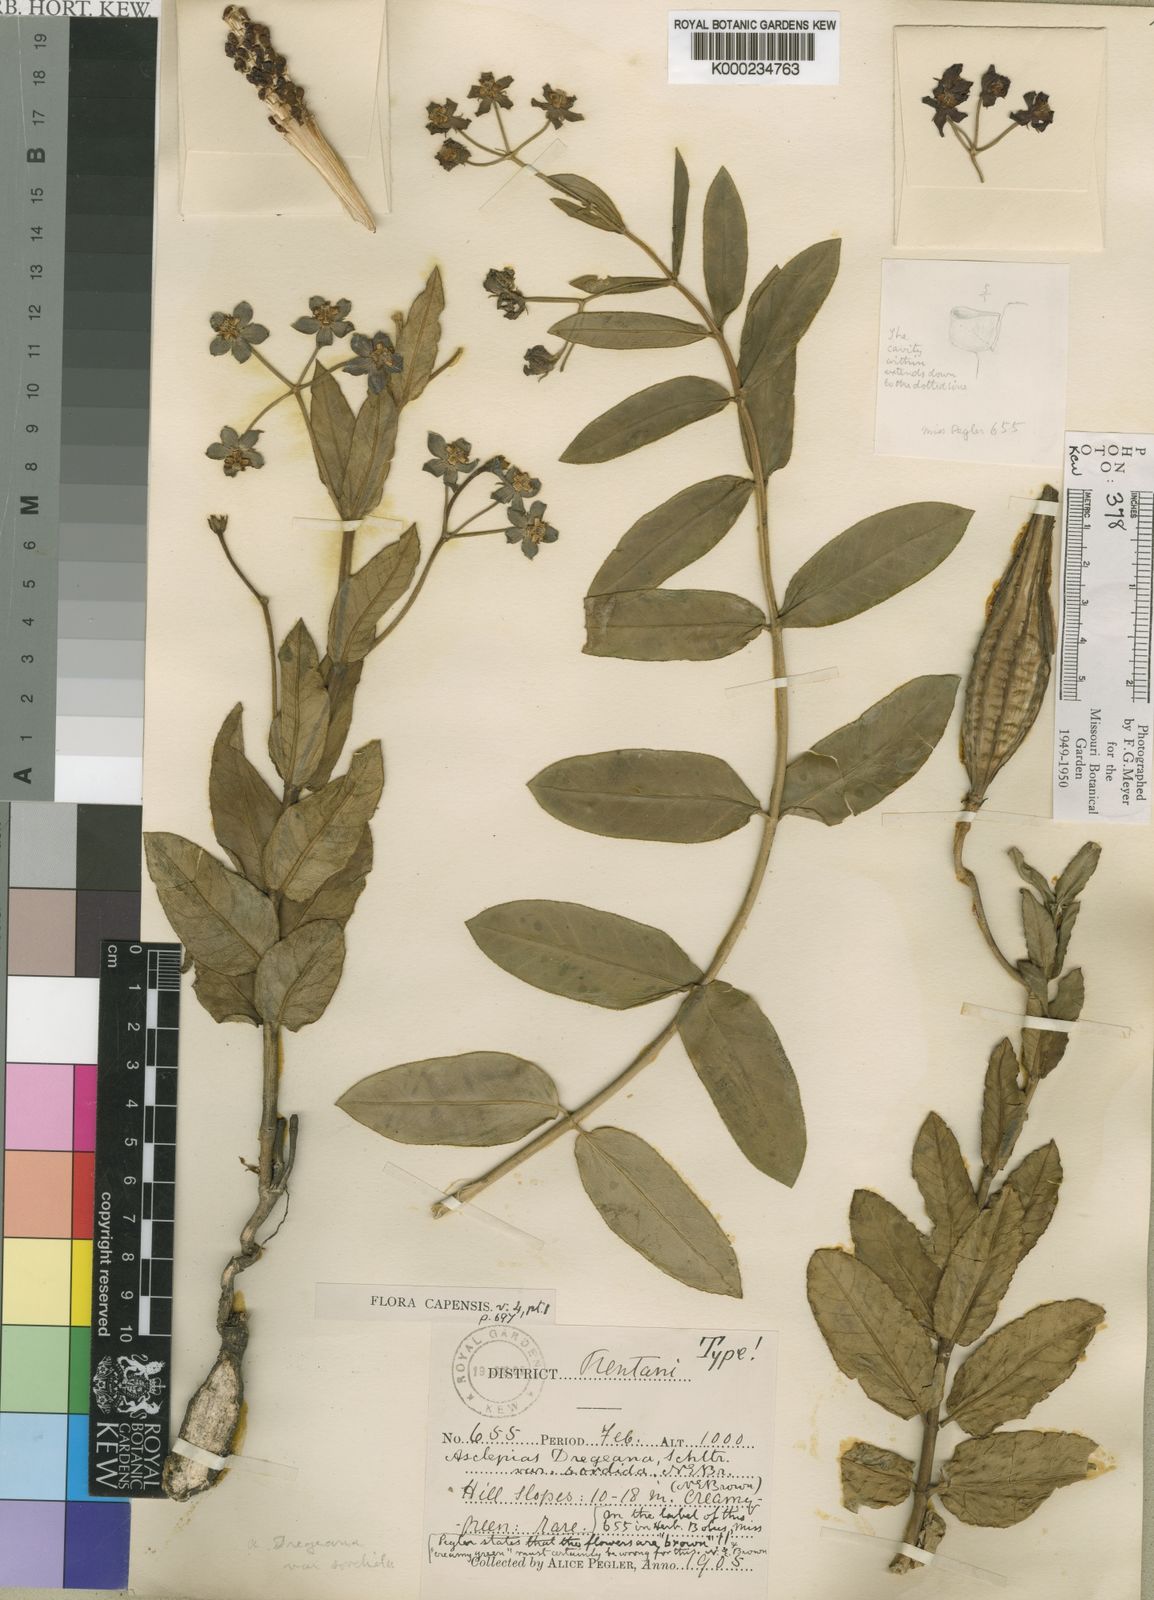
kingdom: Plantae
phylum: Tracheophyta
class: Magnoliopsida
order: Gentianales
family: Apocynaceae
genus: Asclepias
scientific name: Asclepias fulva
